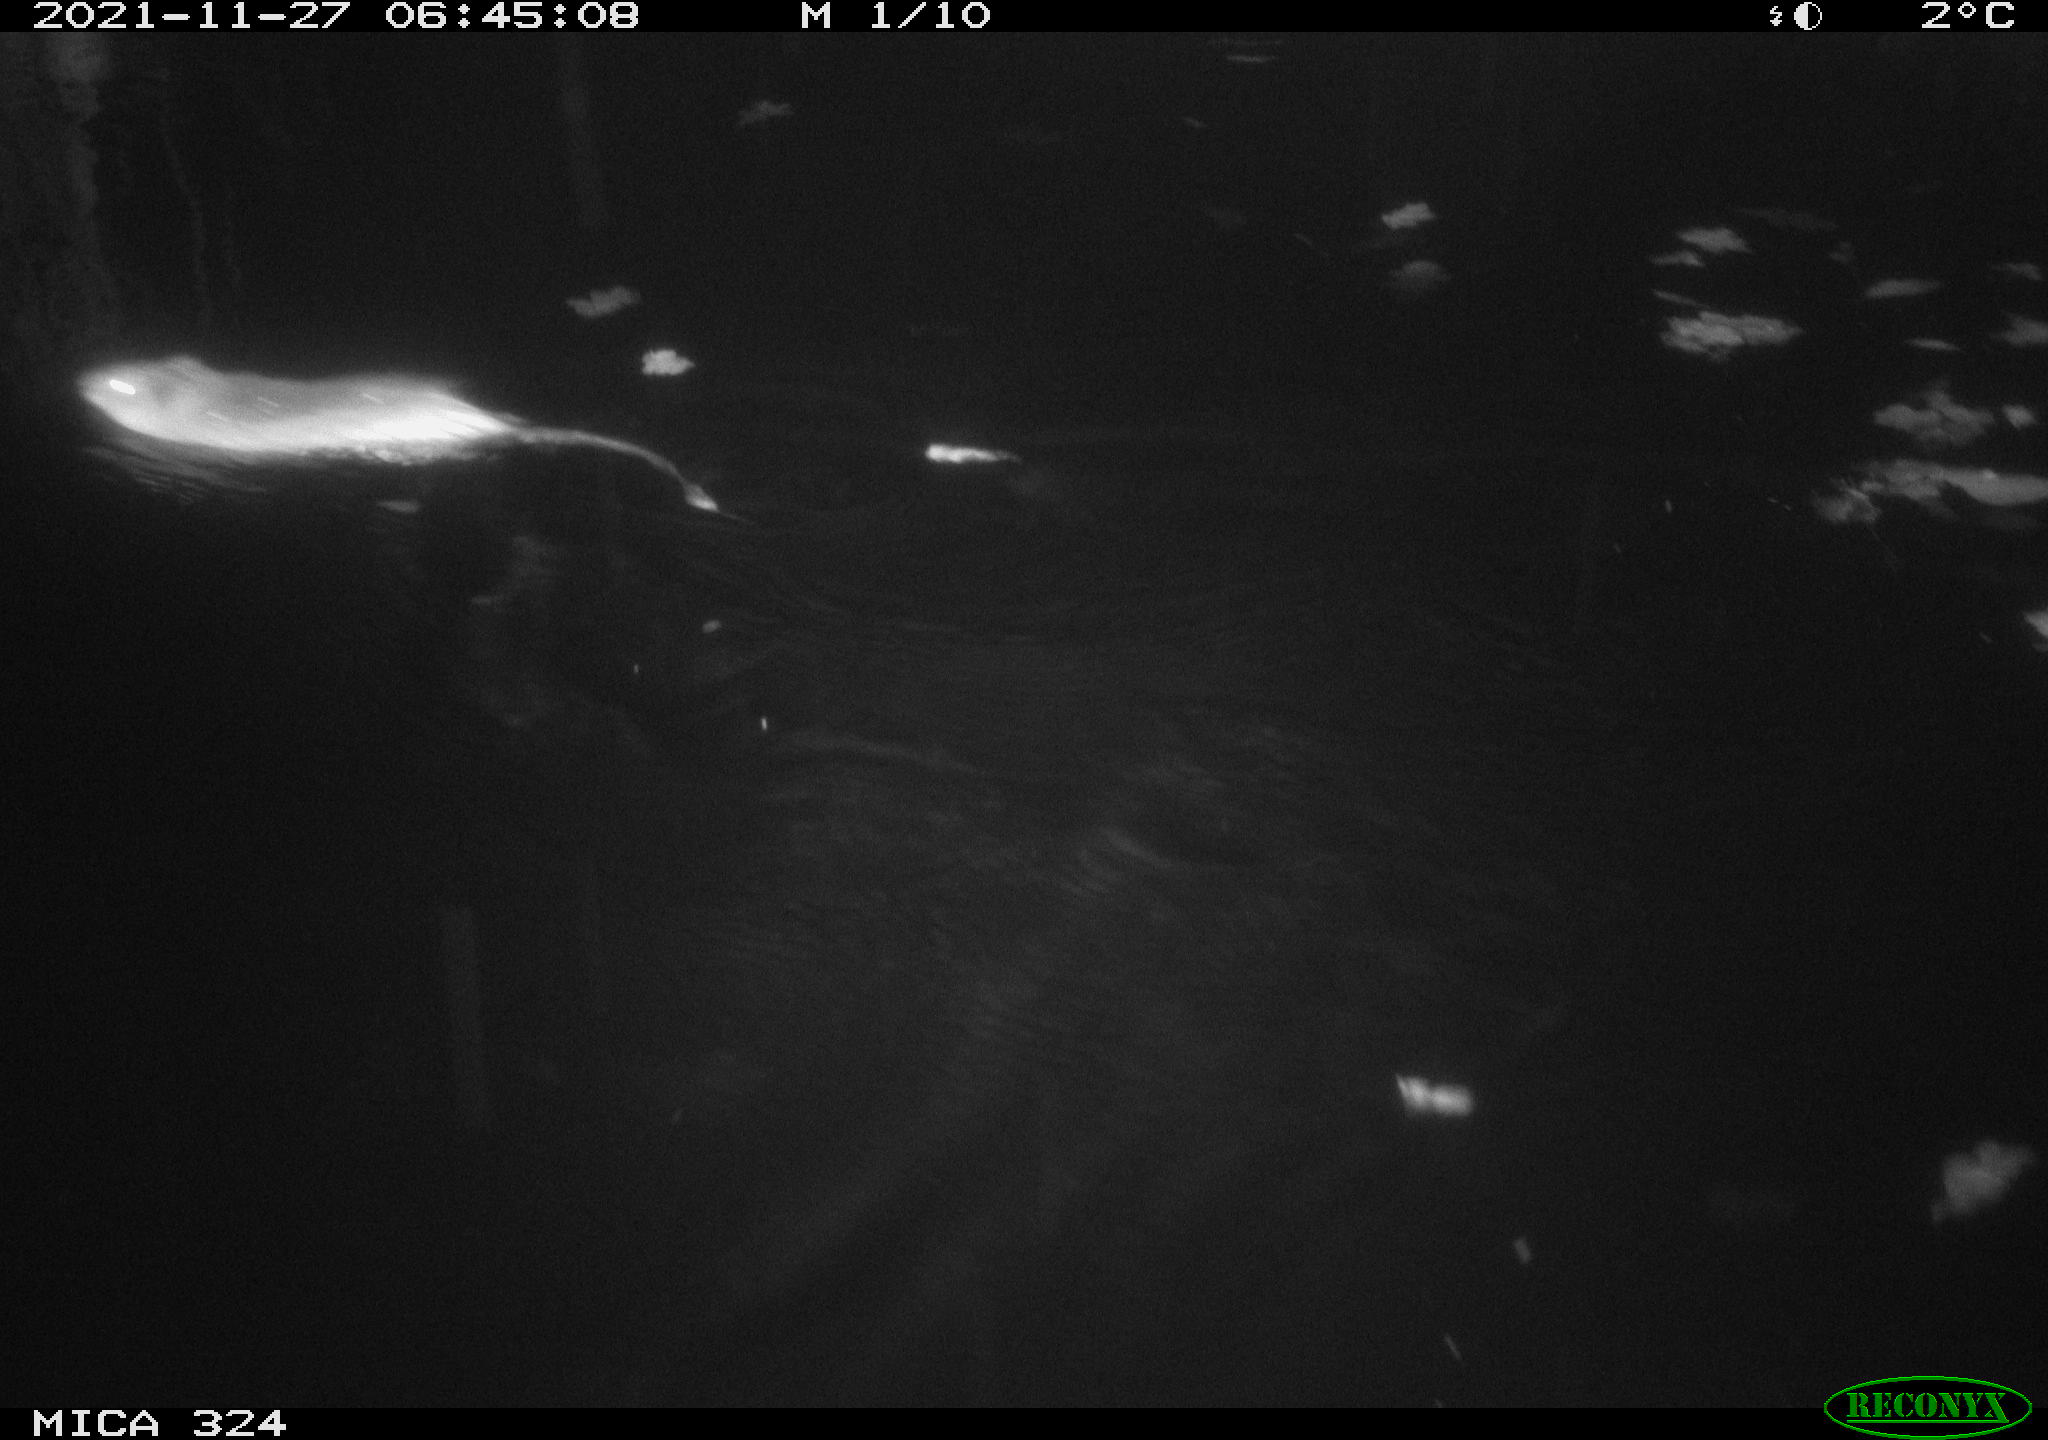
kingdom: Animalia
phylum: Chordata
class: Mammalia
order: Rodentia
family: Cricetidae
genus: Ondatra
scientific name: Ondatra zibethicus
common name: Muskrat
